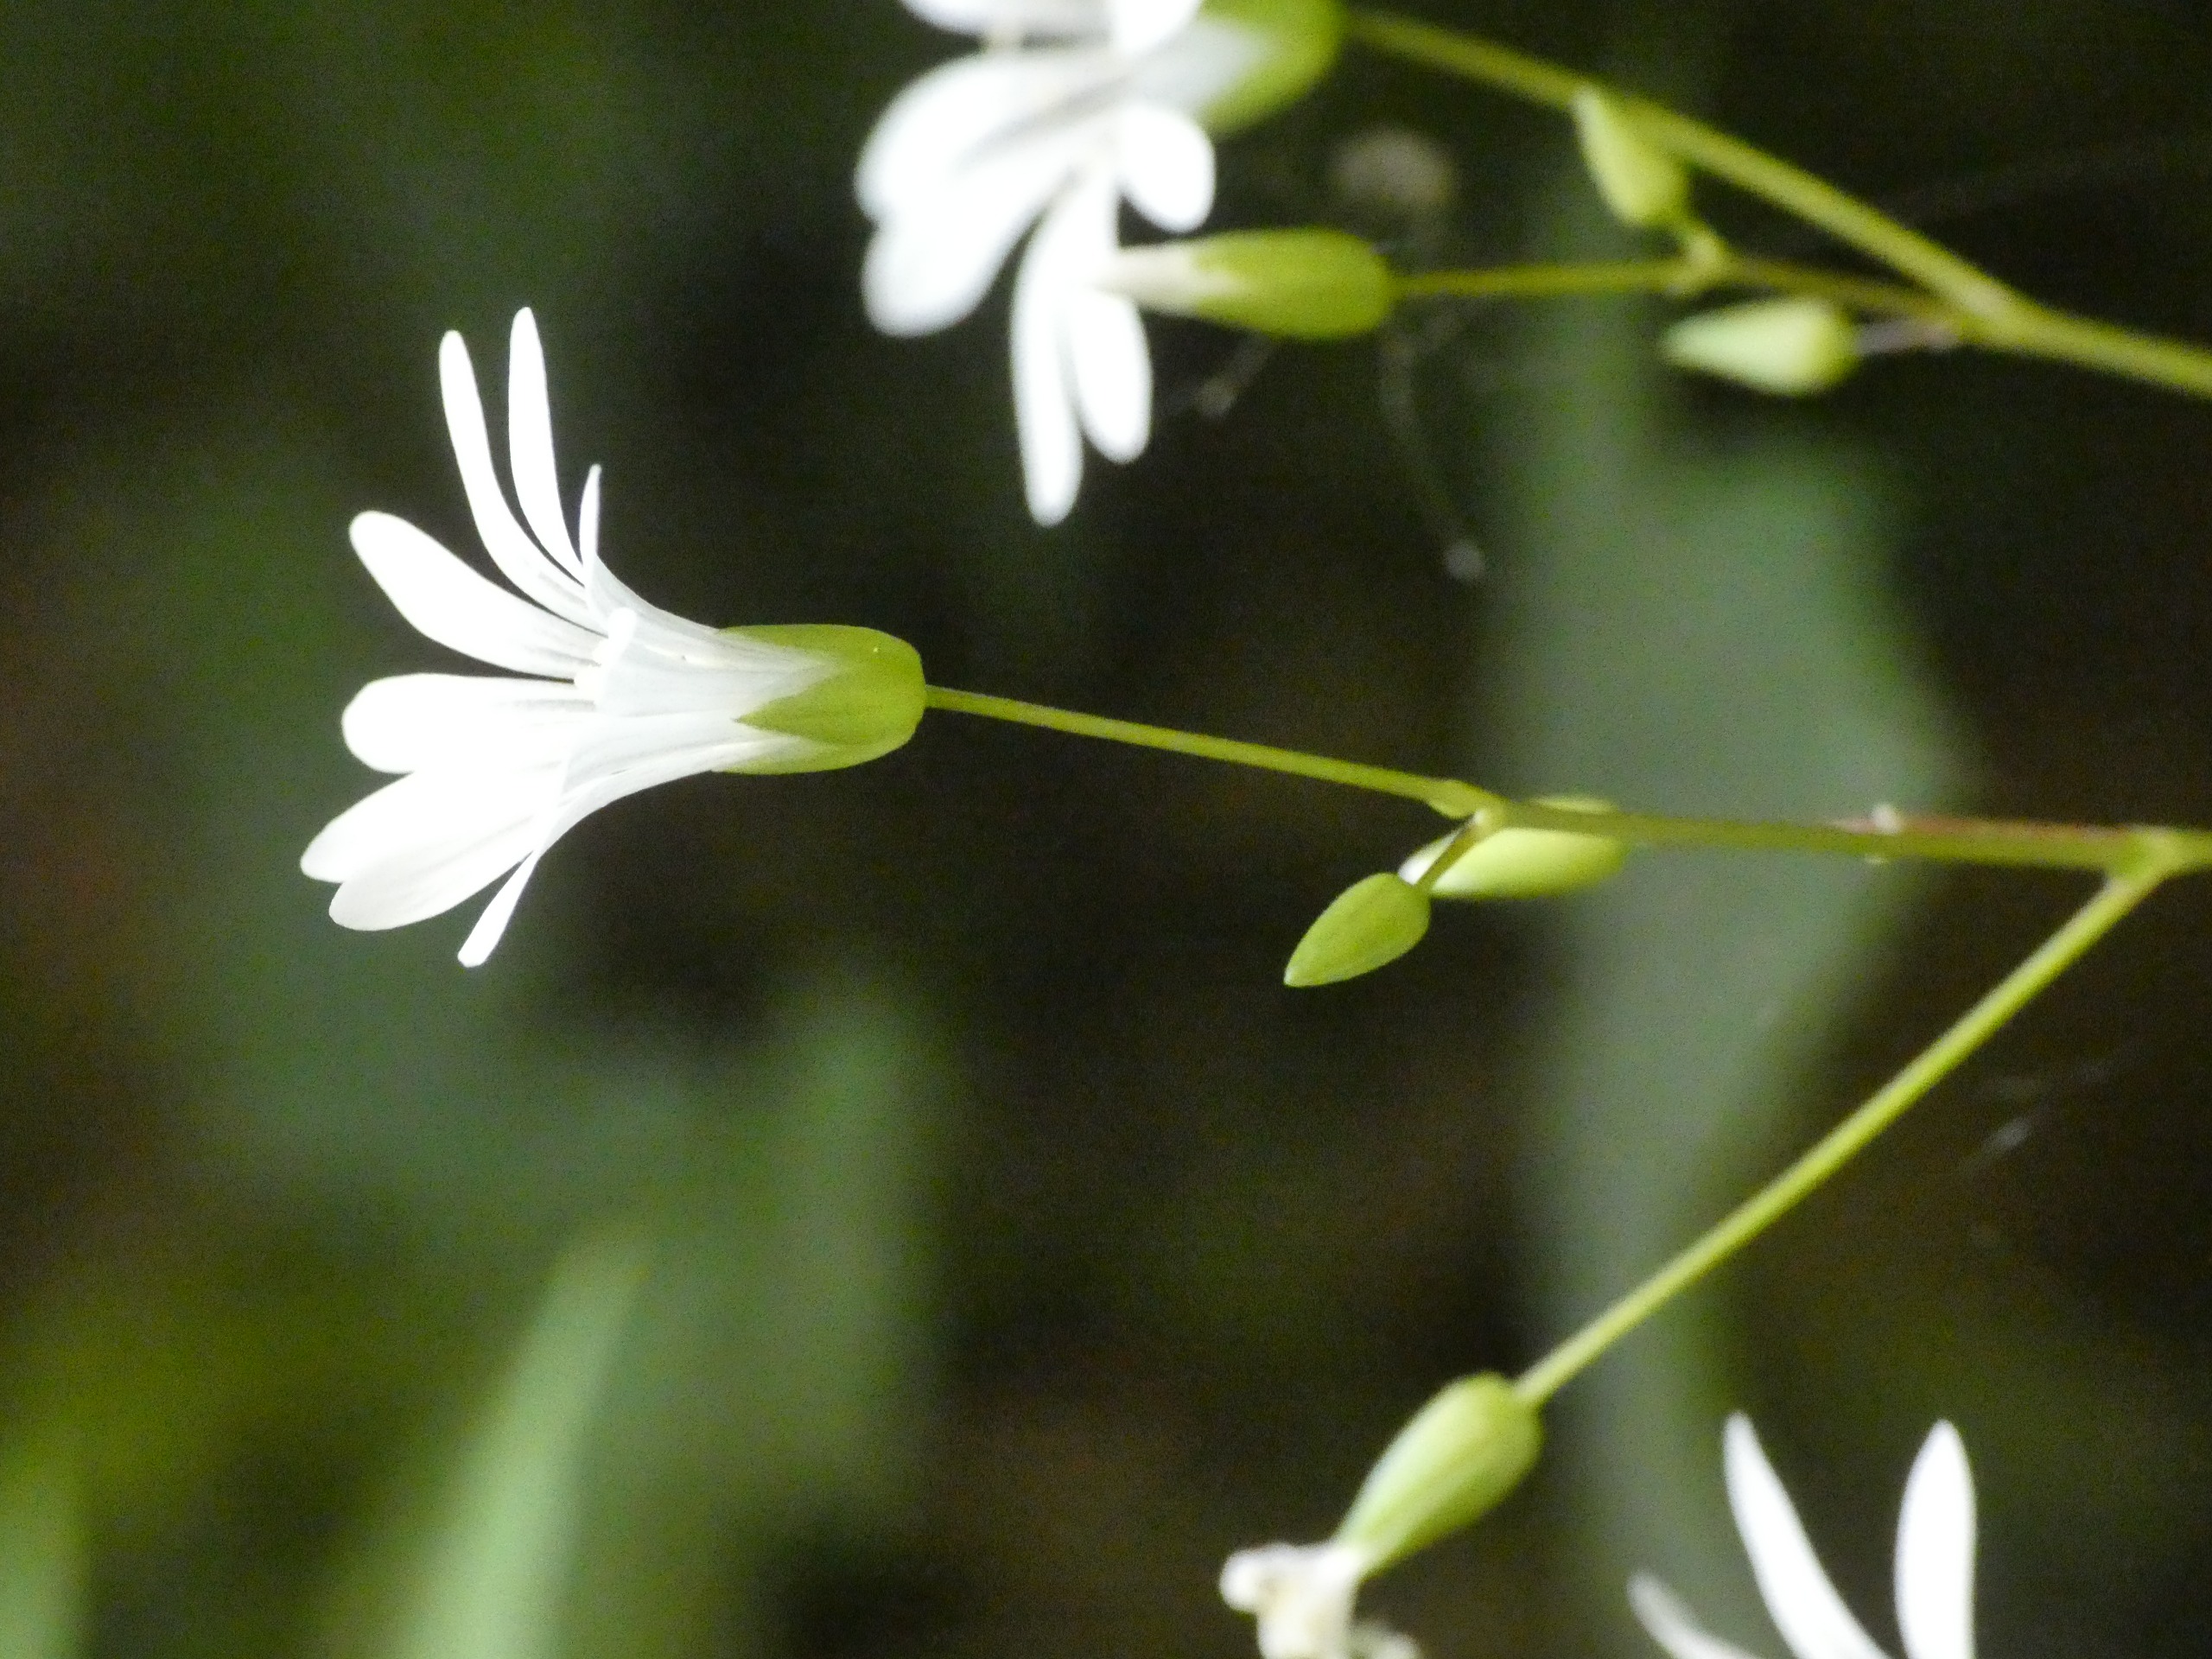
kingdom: Plantae
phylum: Tracheophyta
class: Magnoliopsida
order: Caryophyllales
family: Caryophyllaceae
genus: Stellaria
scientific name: Stellaria nemorum
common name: Lund-fladstjerne
